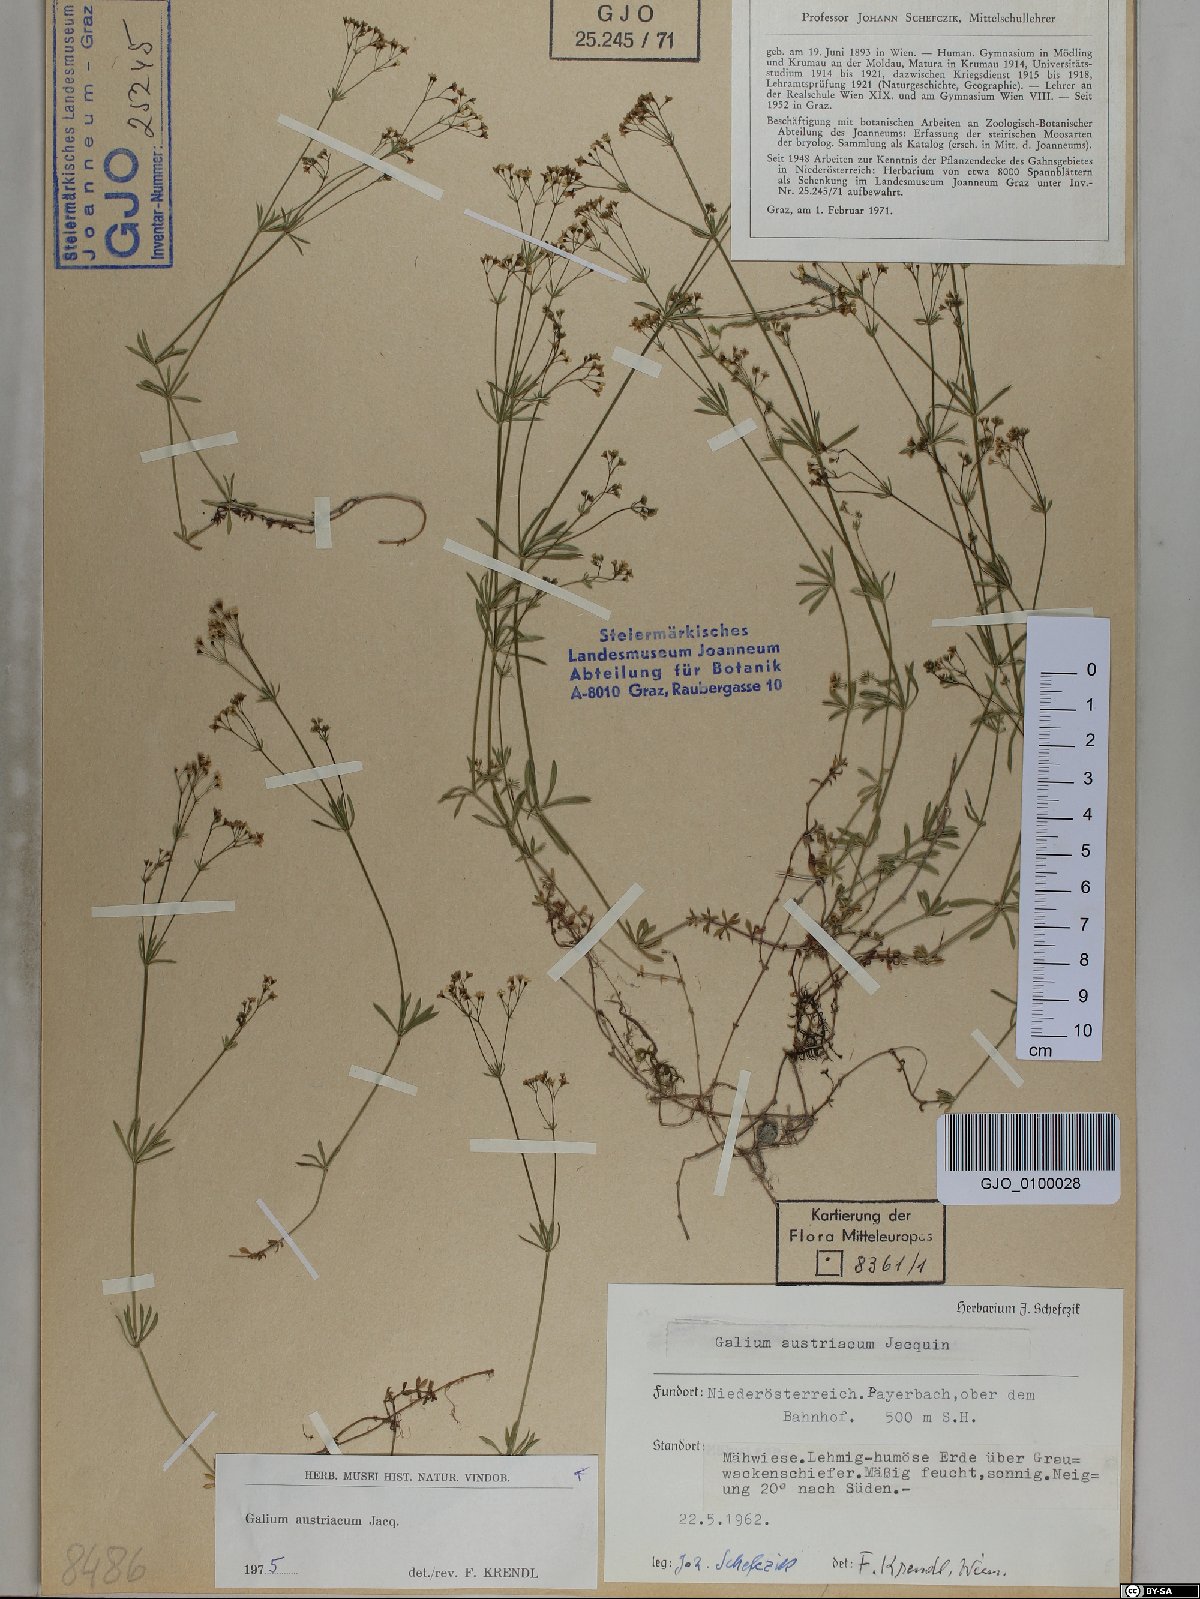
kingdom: Plantae
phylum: Tracheophyta
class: Magnoliopsida
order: Gentianales
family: Rubiaceae
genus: Galium
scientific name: Galium austriacum
